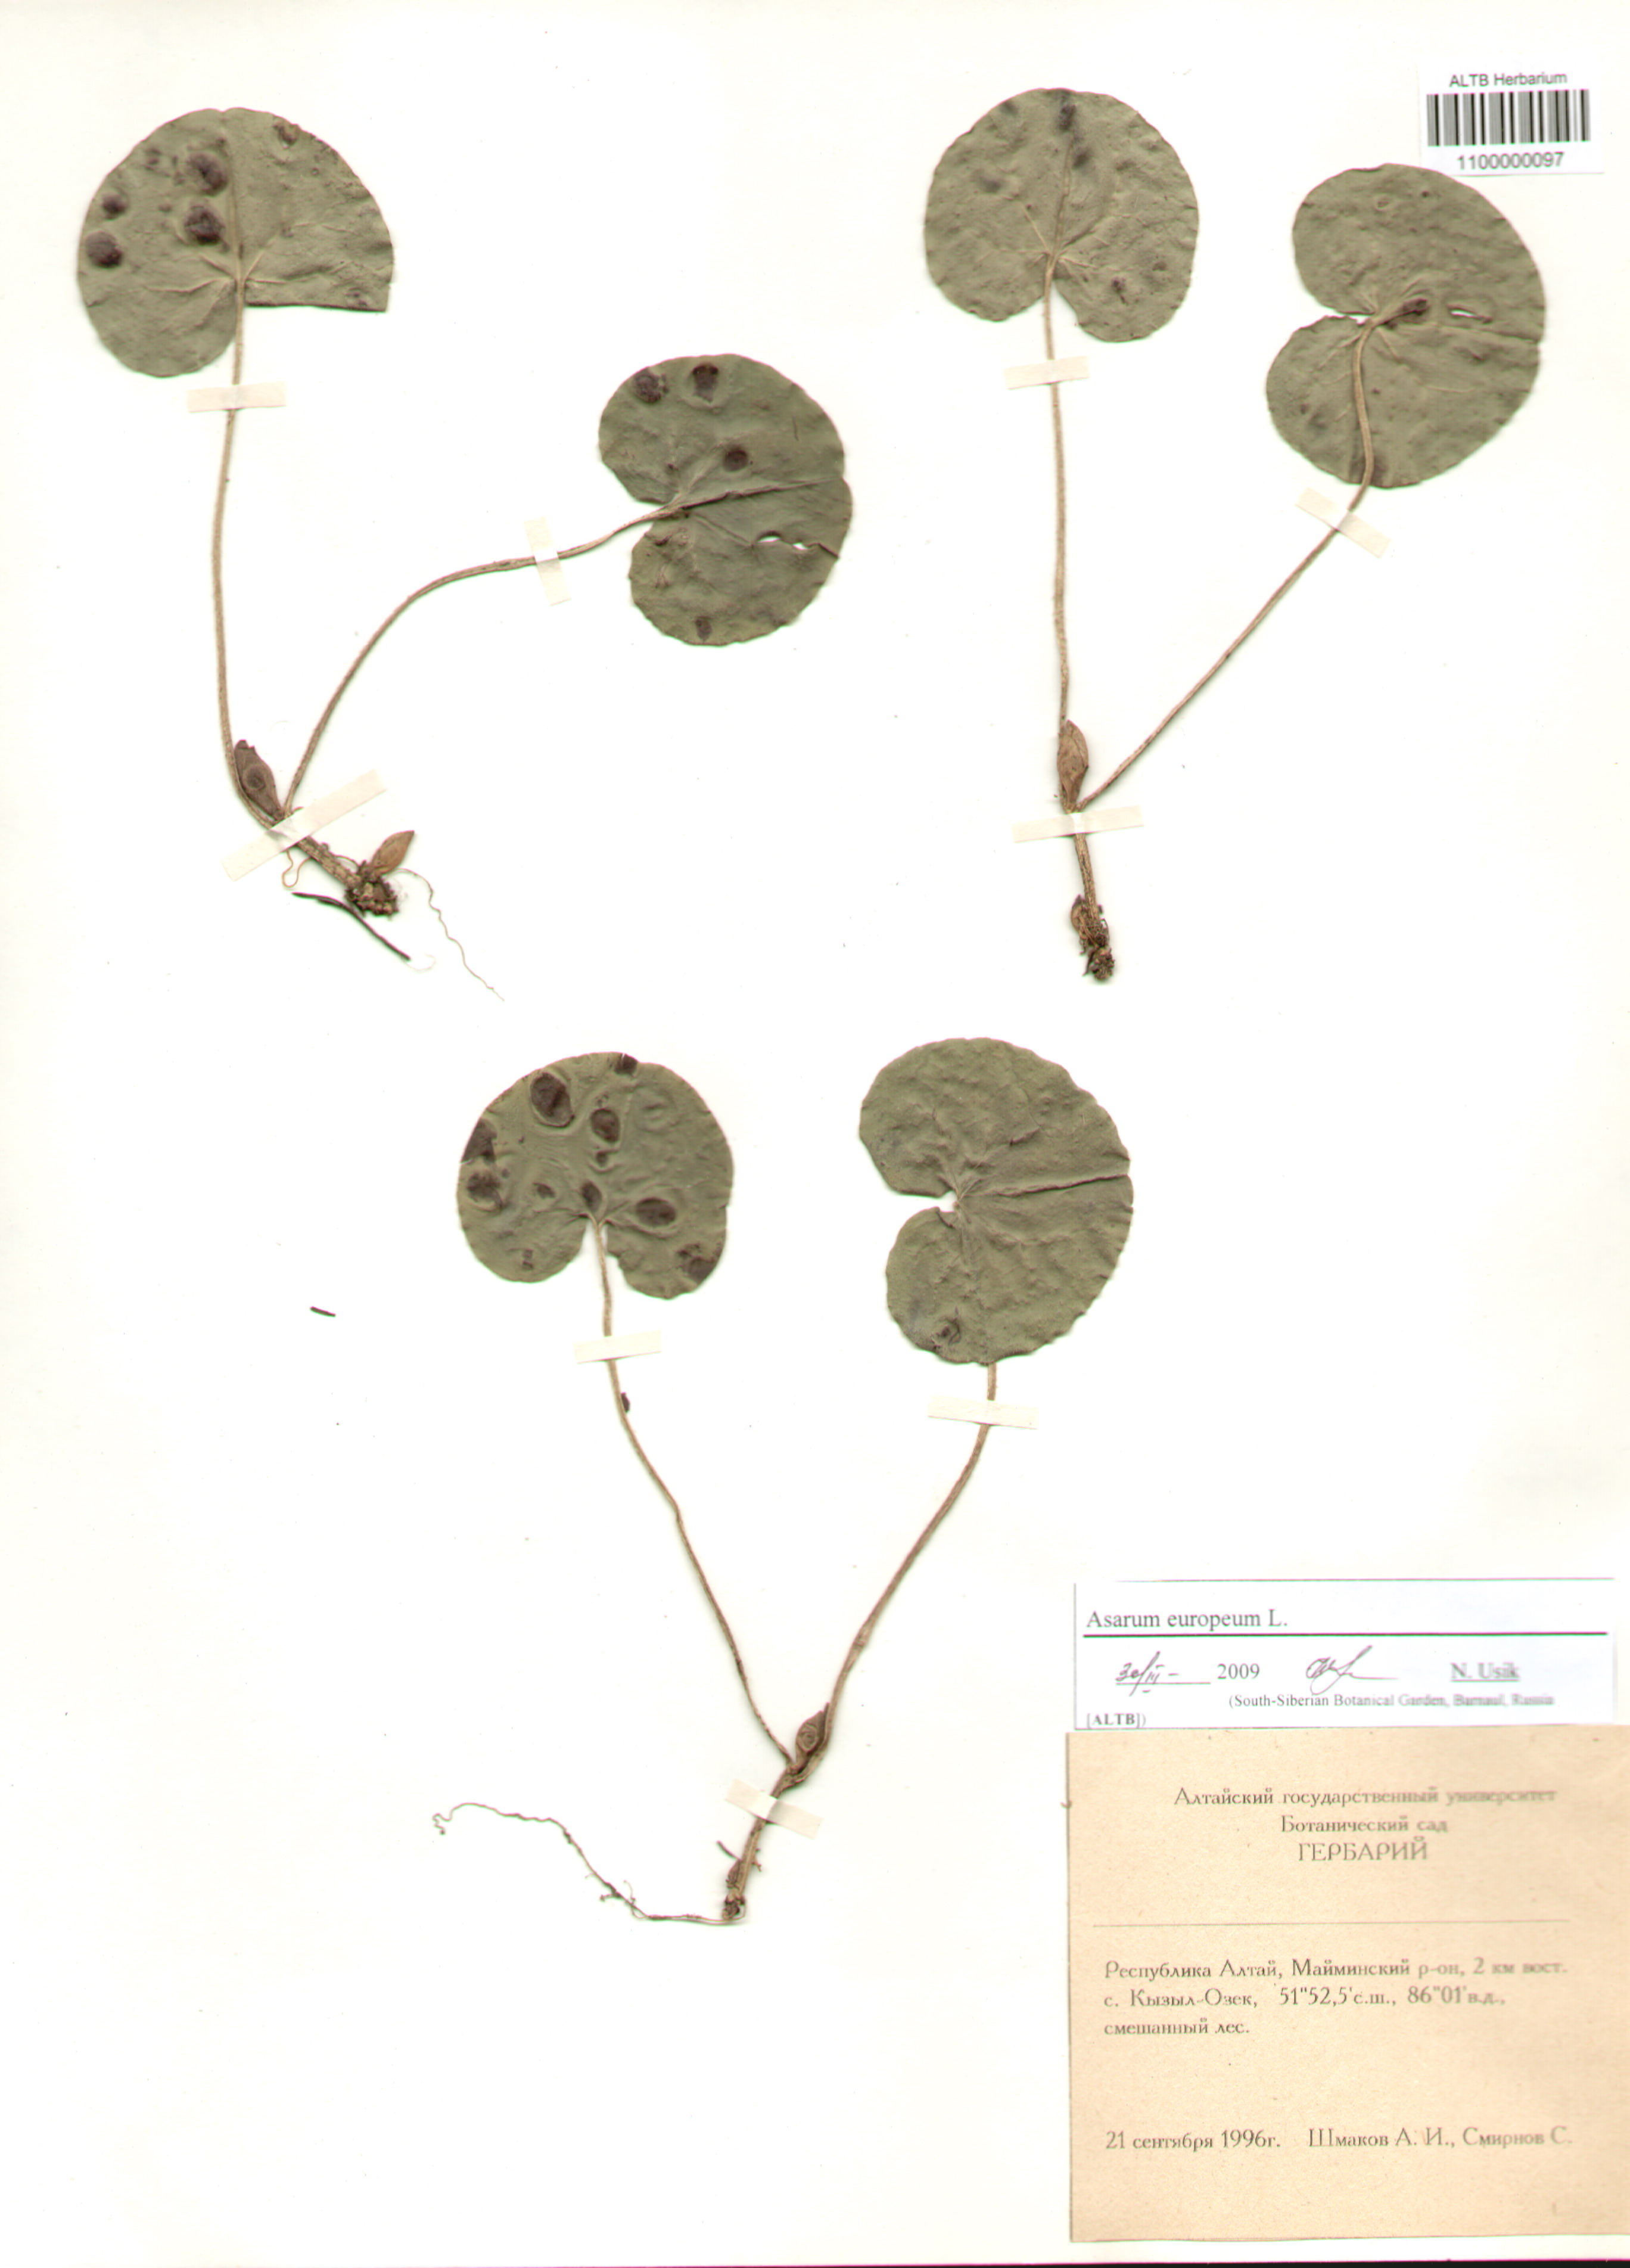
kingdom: Plantae
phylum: Tracheophyta
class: Magnoliopsida
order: Piperales
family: Aristolochiaceae
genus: Asarum
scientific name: Asarum europaeum
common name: Asarabacca
